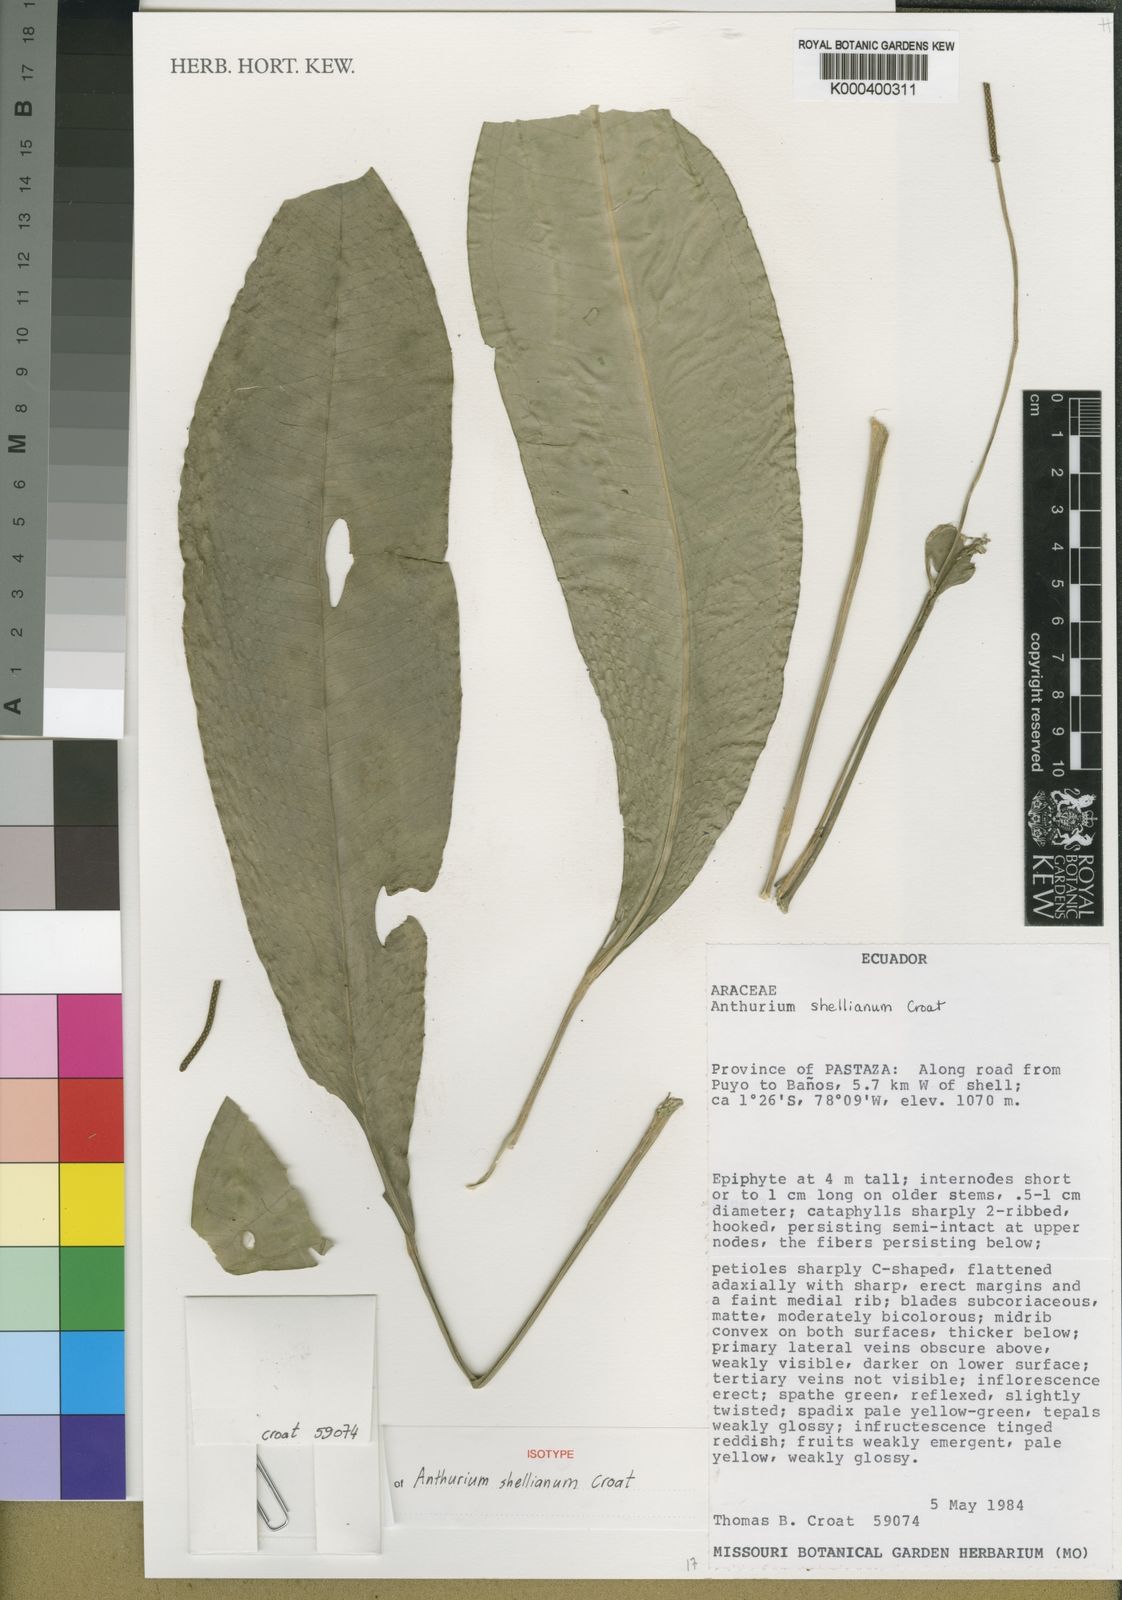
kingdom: Plantae
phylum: Tracheophyta
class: Liliopsida
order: Alismatales
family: Araceae
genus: Anthurium
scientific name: Anthurium
